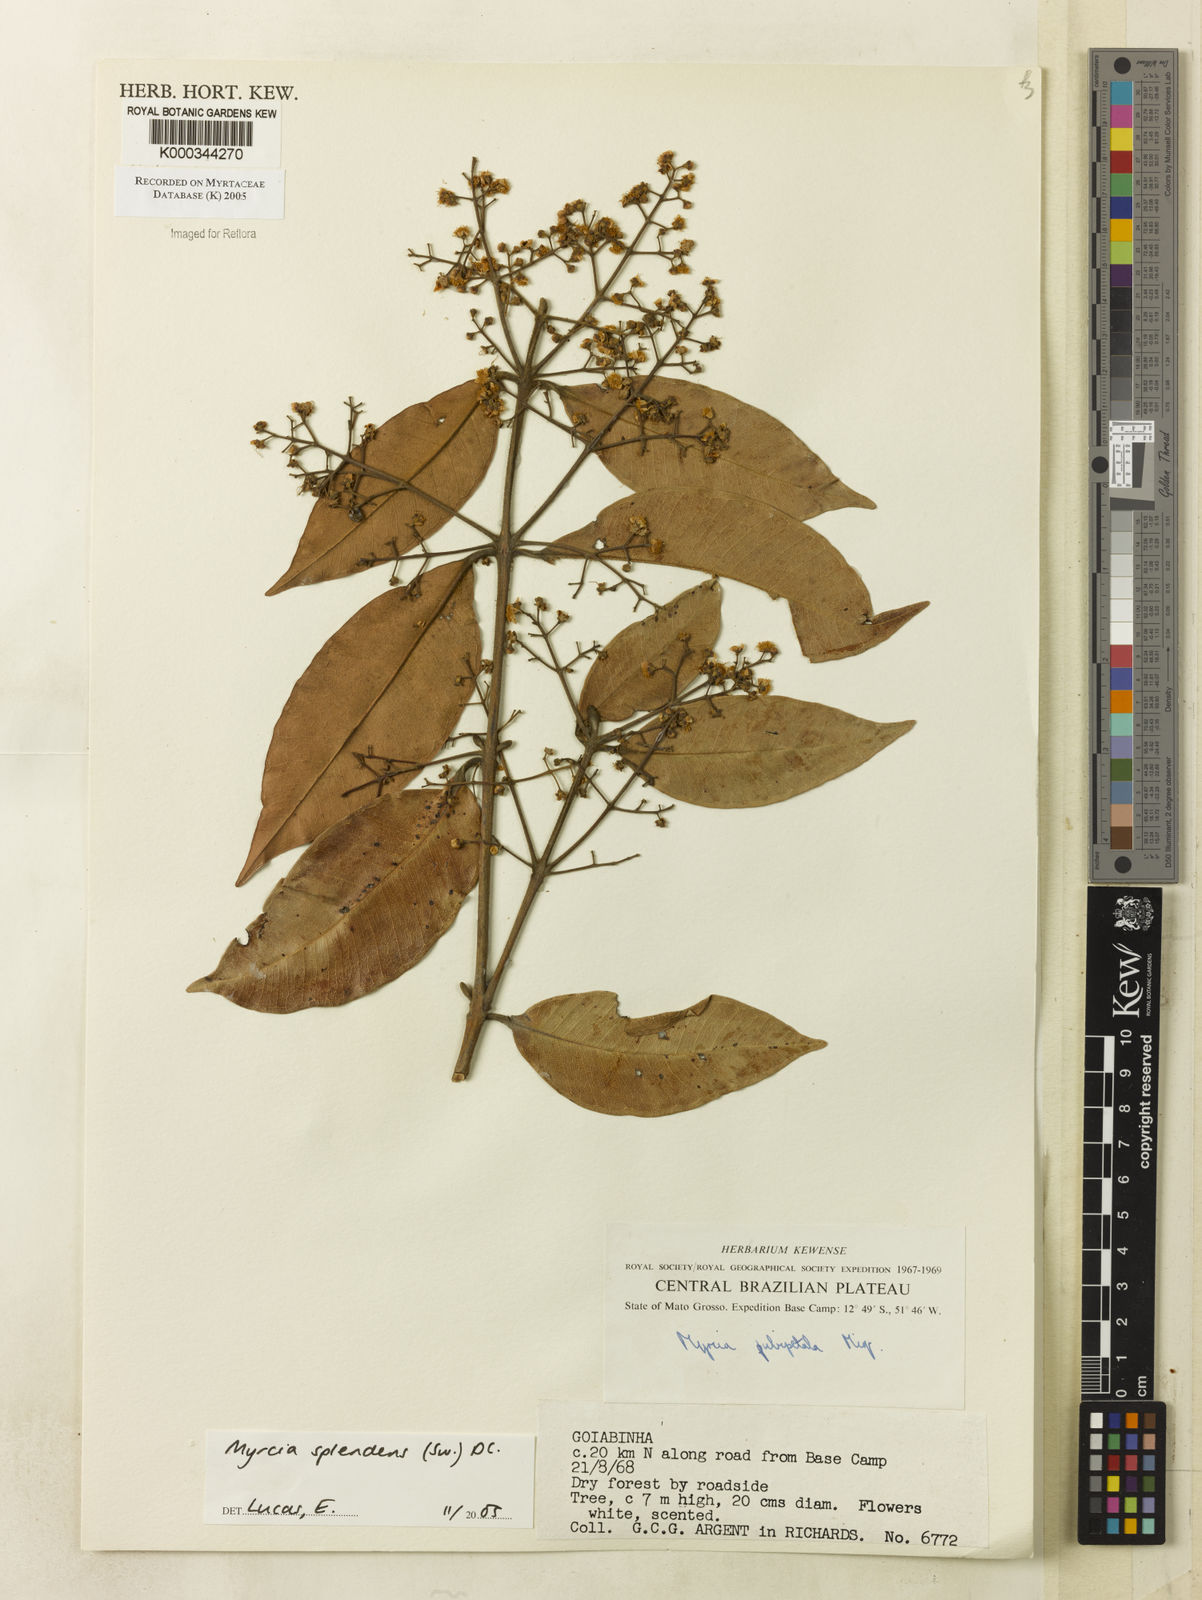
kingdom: Plantae
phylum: Tracheophyta
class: Magnoliopsida
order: Myrtales
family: Myrtaceae
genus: Myrcia
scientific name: Myrcia splendens
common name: Surinam cherry
